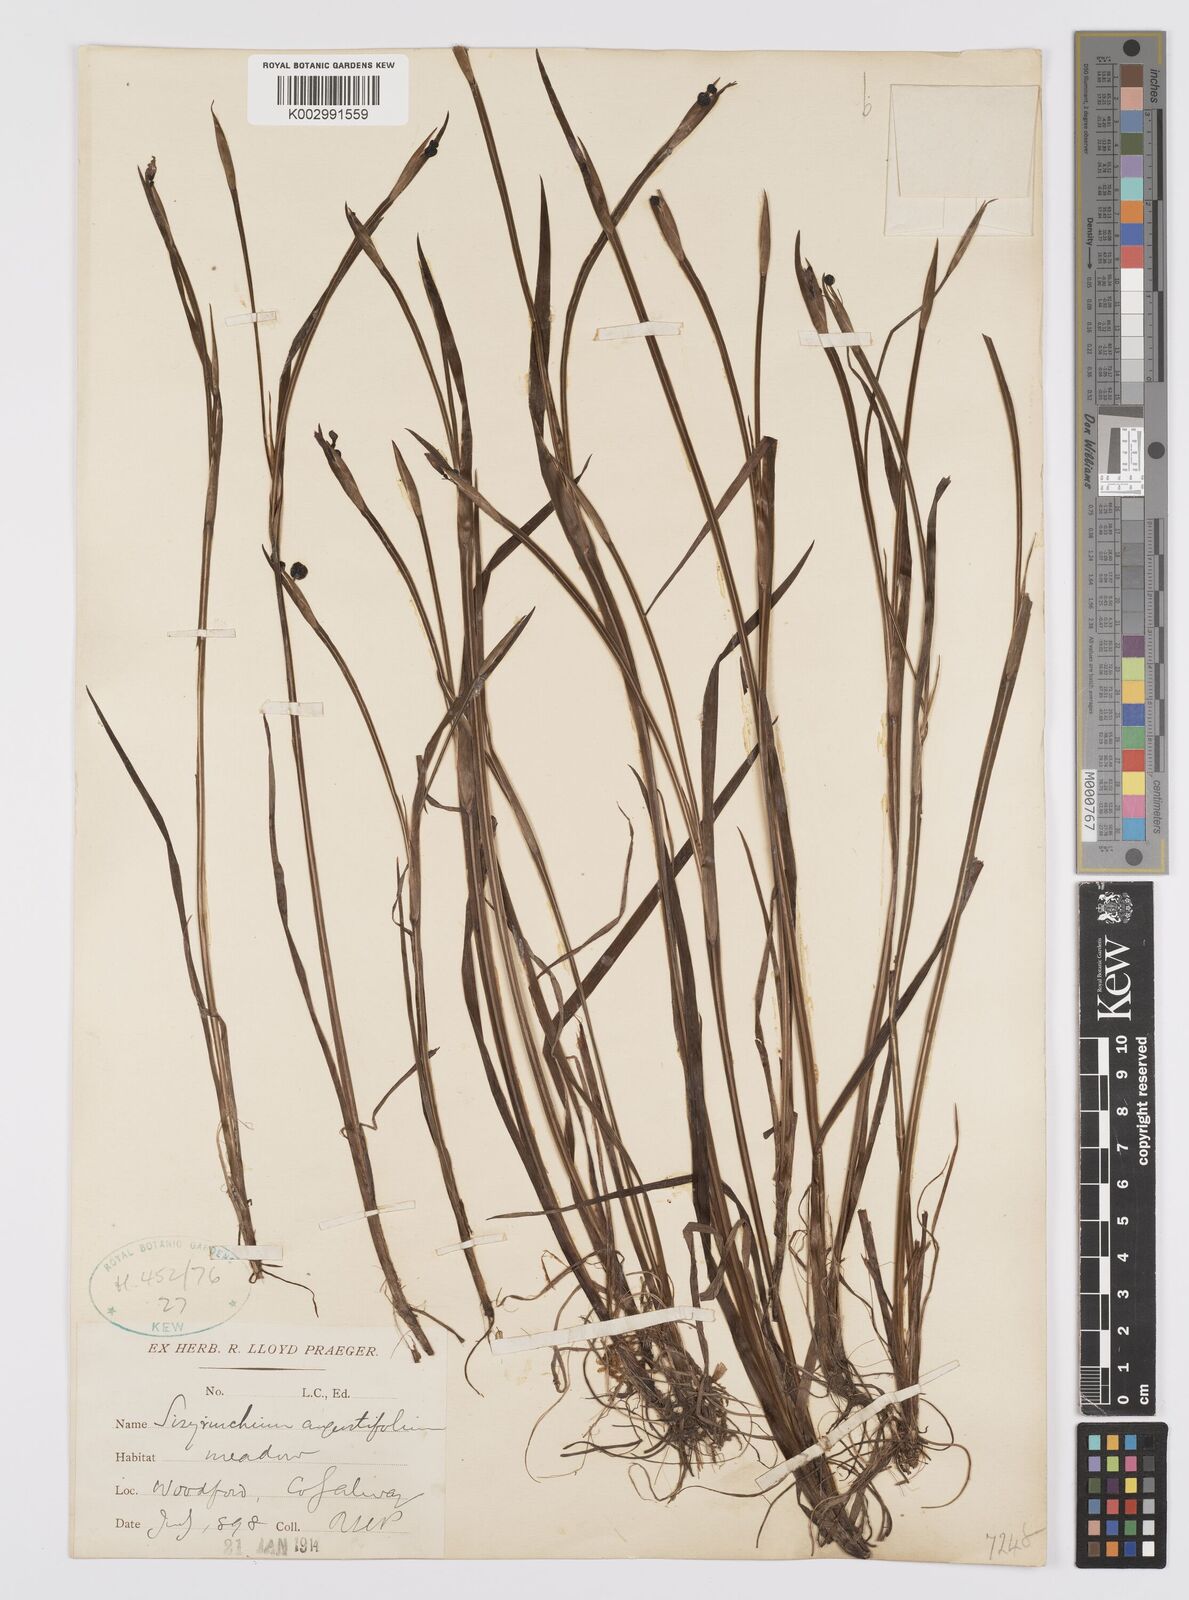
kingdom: Plantae
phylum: Tracheophyta
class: Liliopsida
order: Asparagales
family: Iridaceae
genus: Sisyrinchium
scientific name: Sisyrinchium angustifolium
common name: Narrow-leaf blue-eyed-grass
